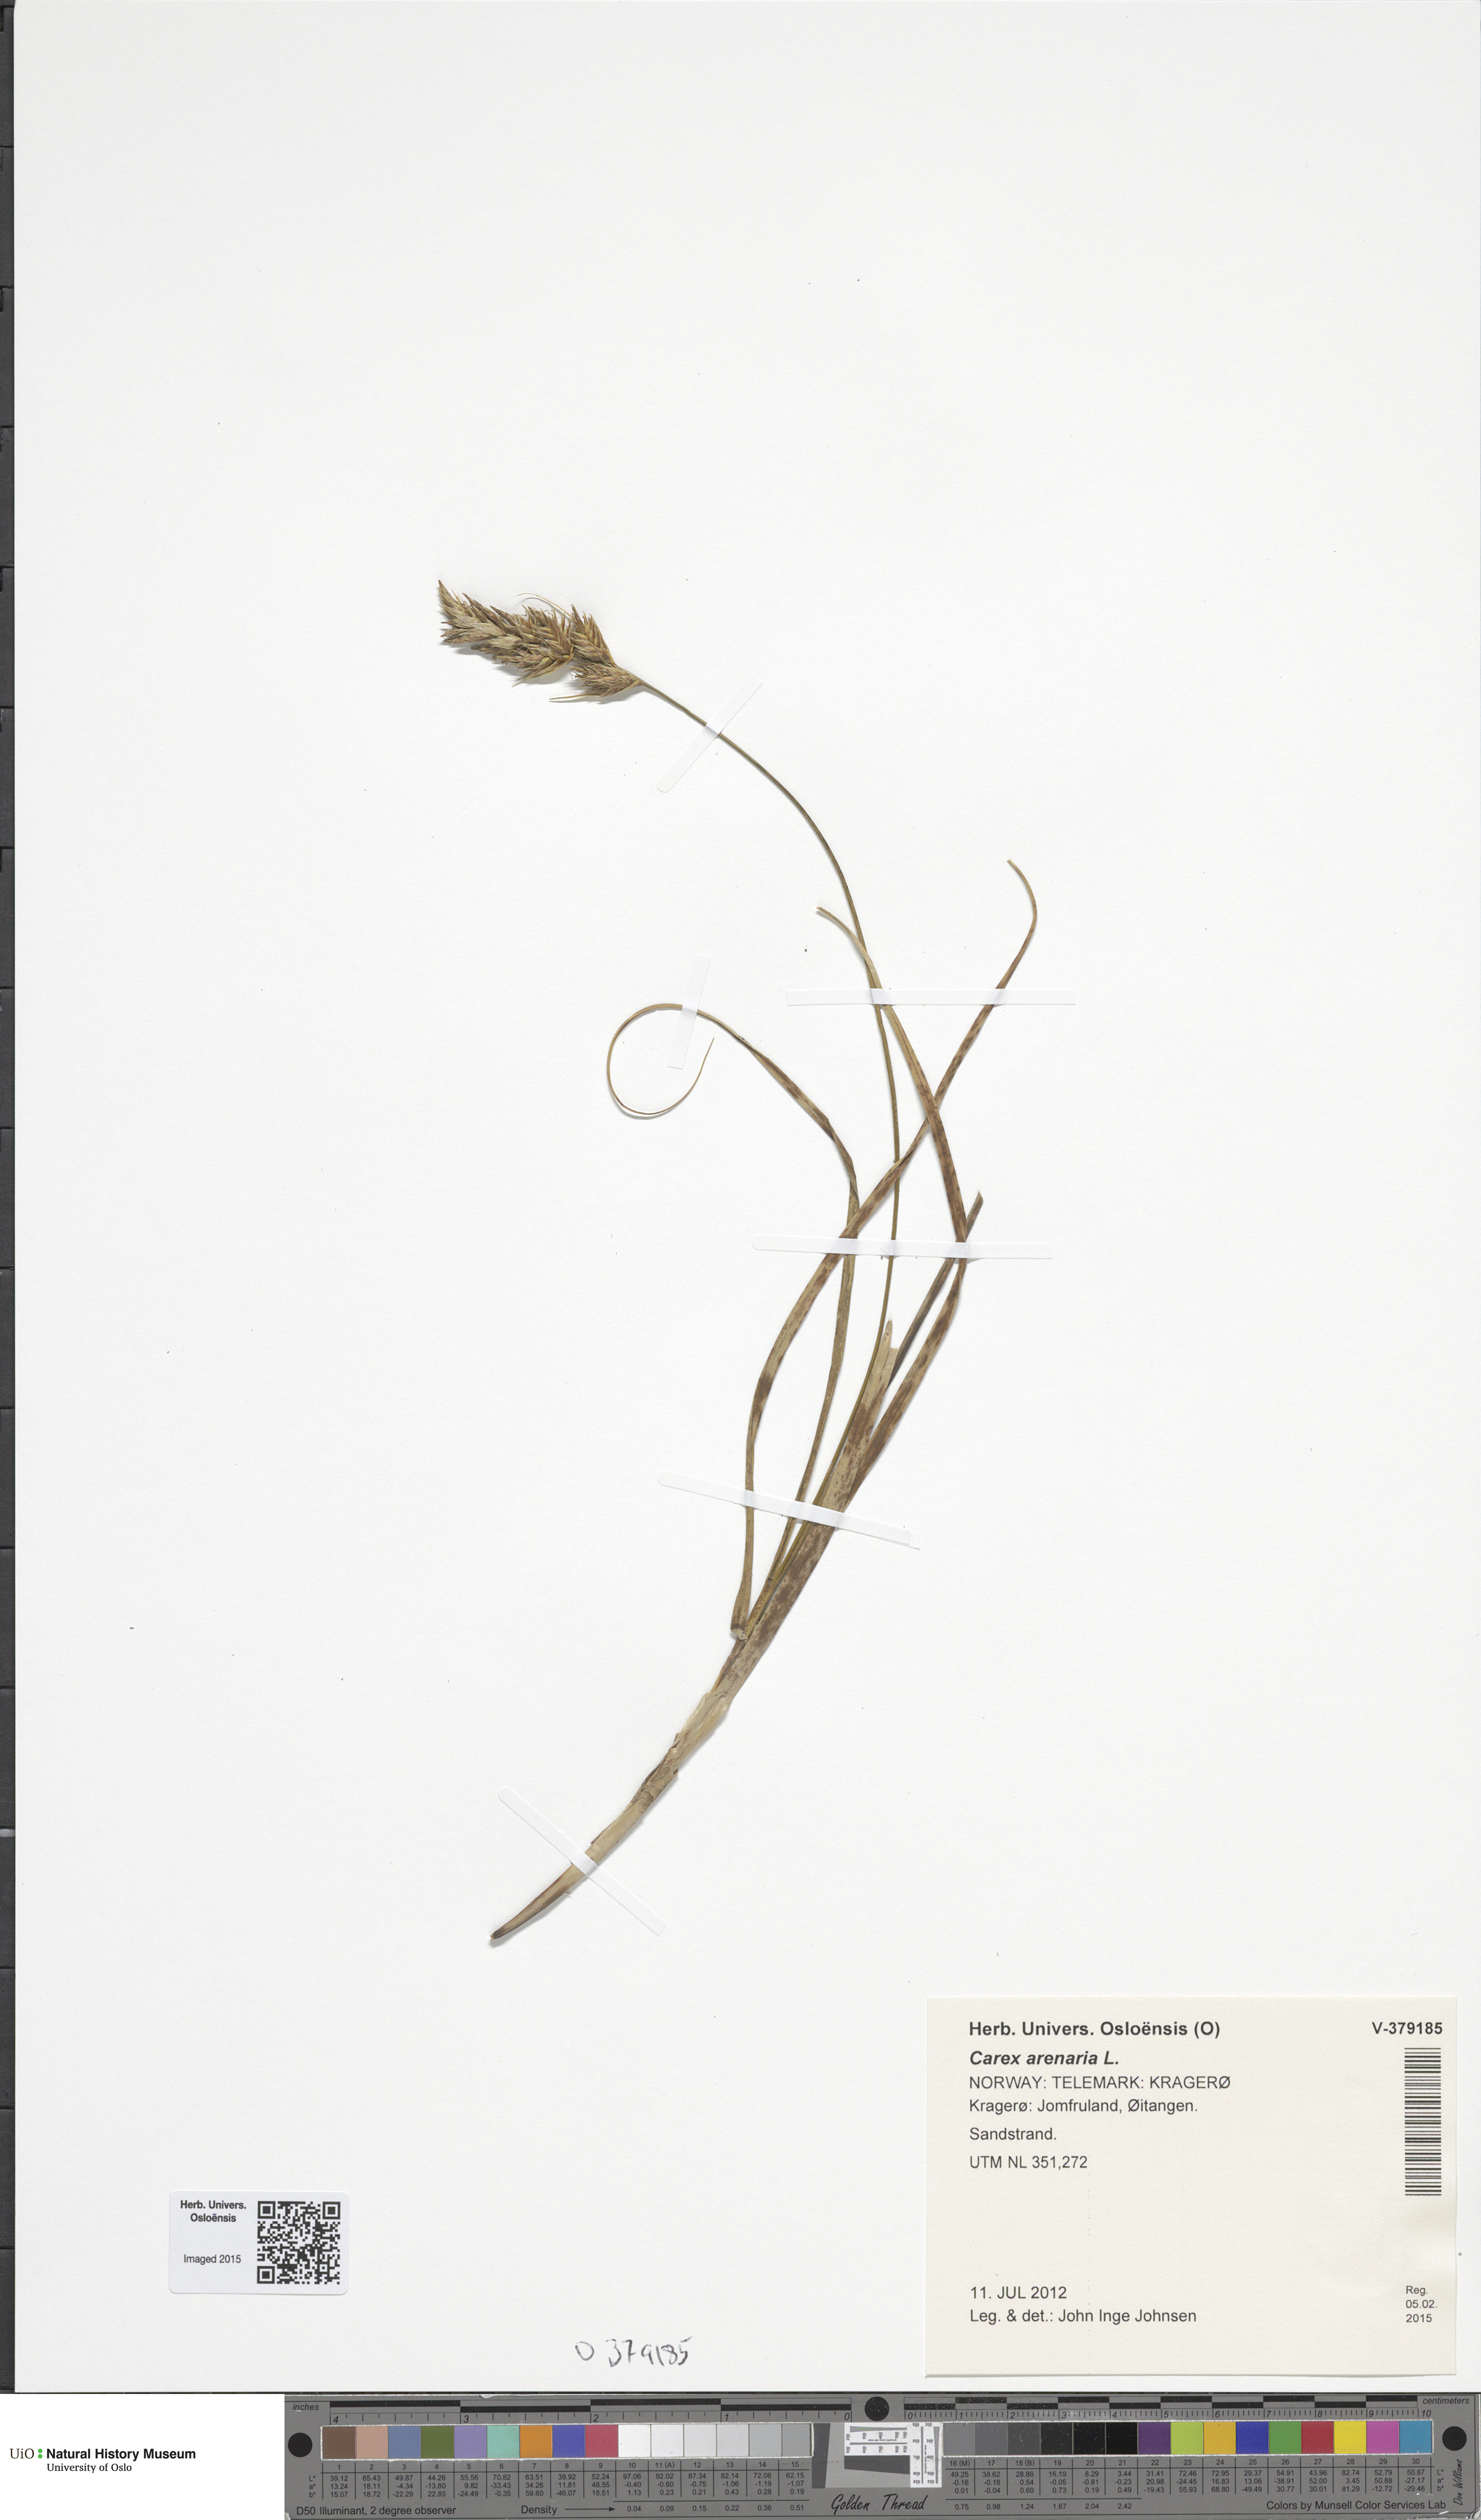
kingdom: Plantae
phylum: Tracheophyta
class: Liliopsida
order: Poales
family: Cyperaceae
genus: Carex
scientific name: Carex arenaria
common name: Sand sedge
